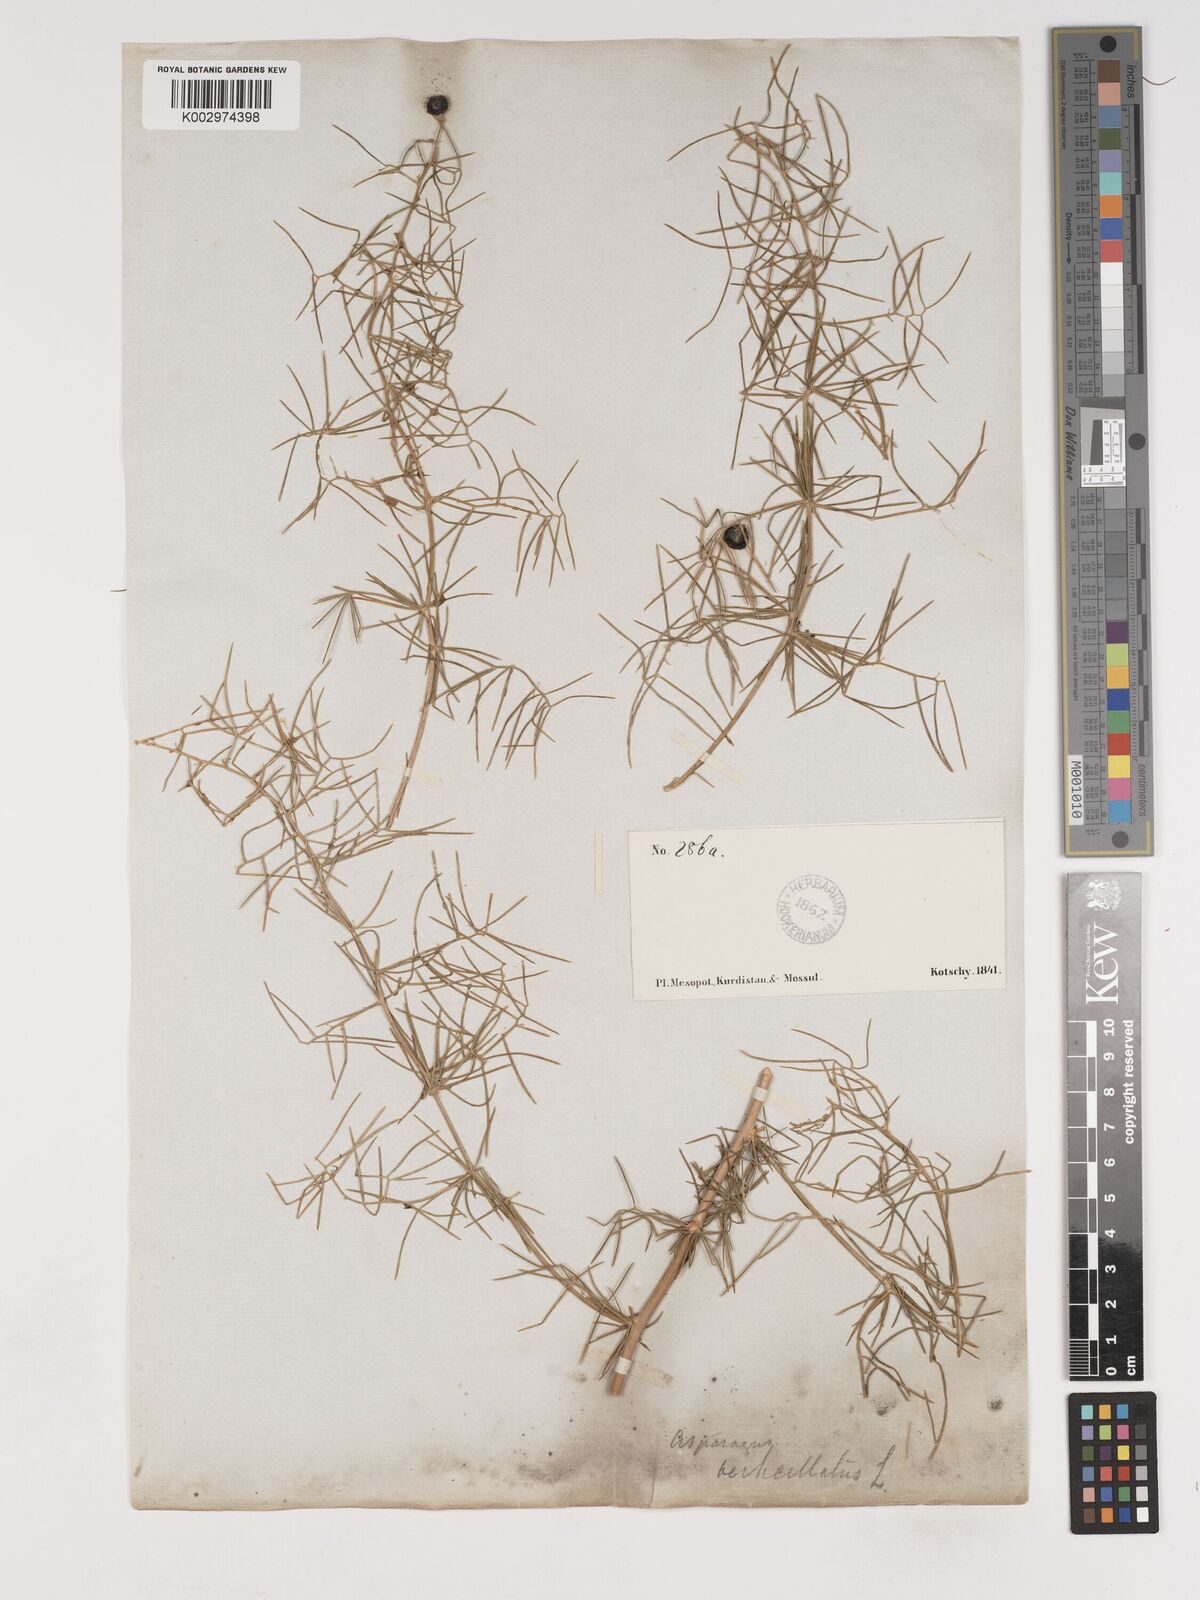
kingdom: Plantae
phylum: Tracheophyta
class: Liliopsida
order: Asparagales
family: Asparagaceae
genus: Asparagus
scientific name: Asparagus verticillatus
